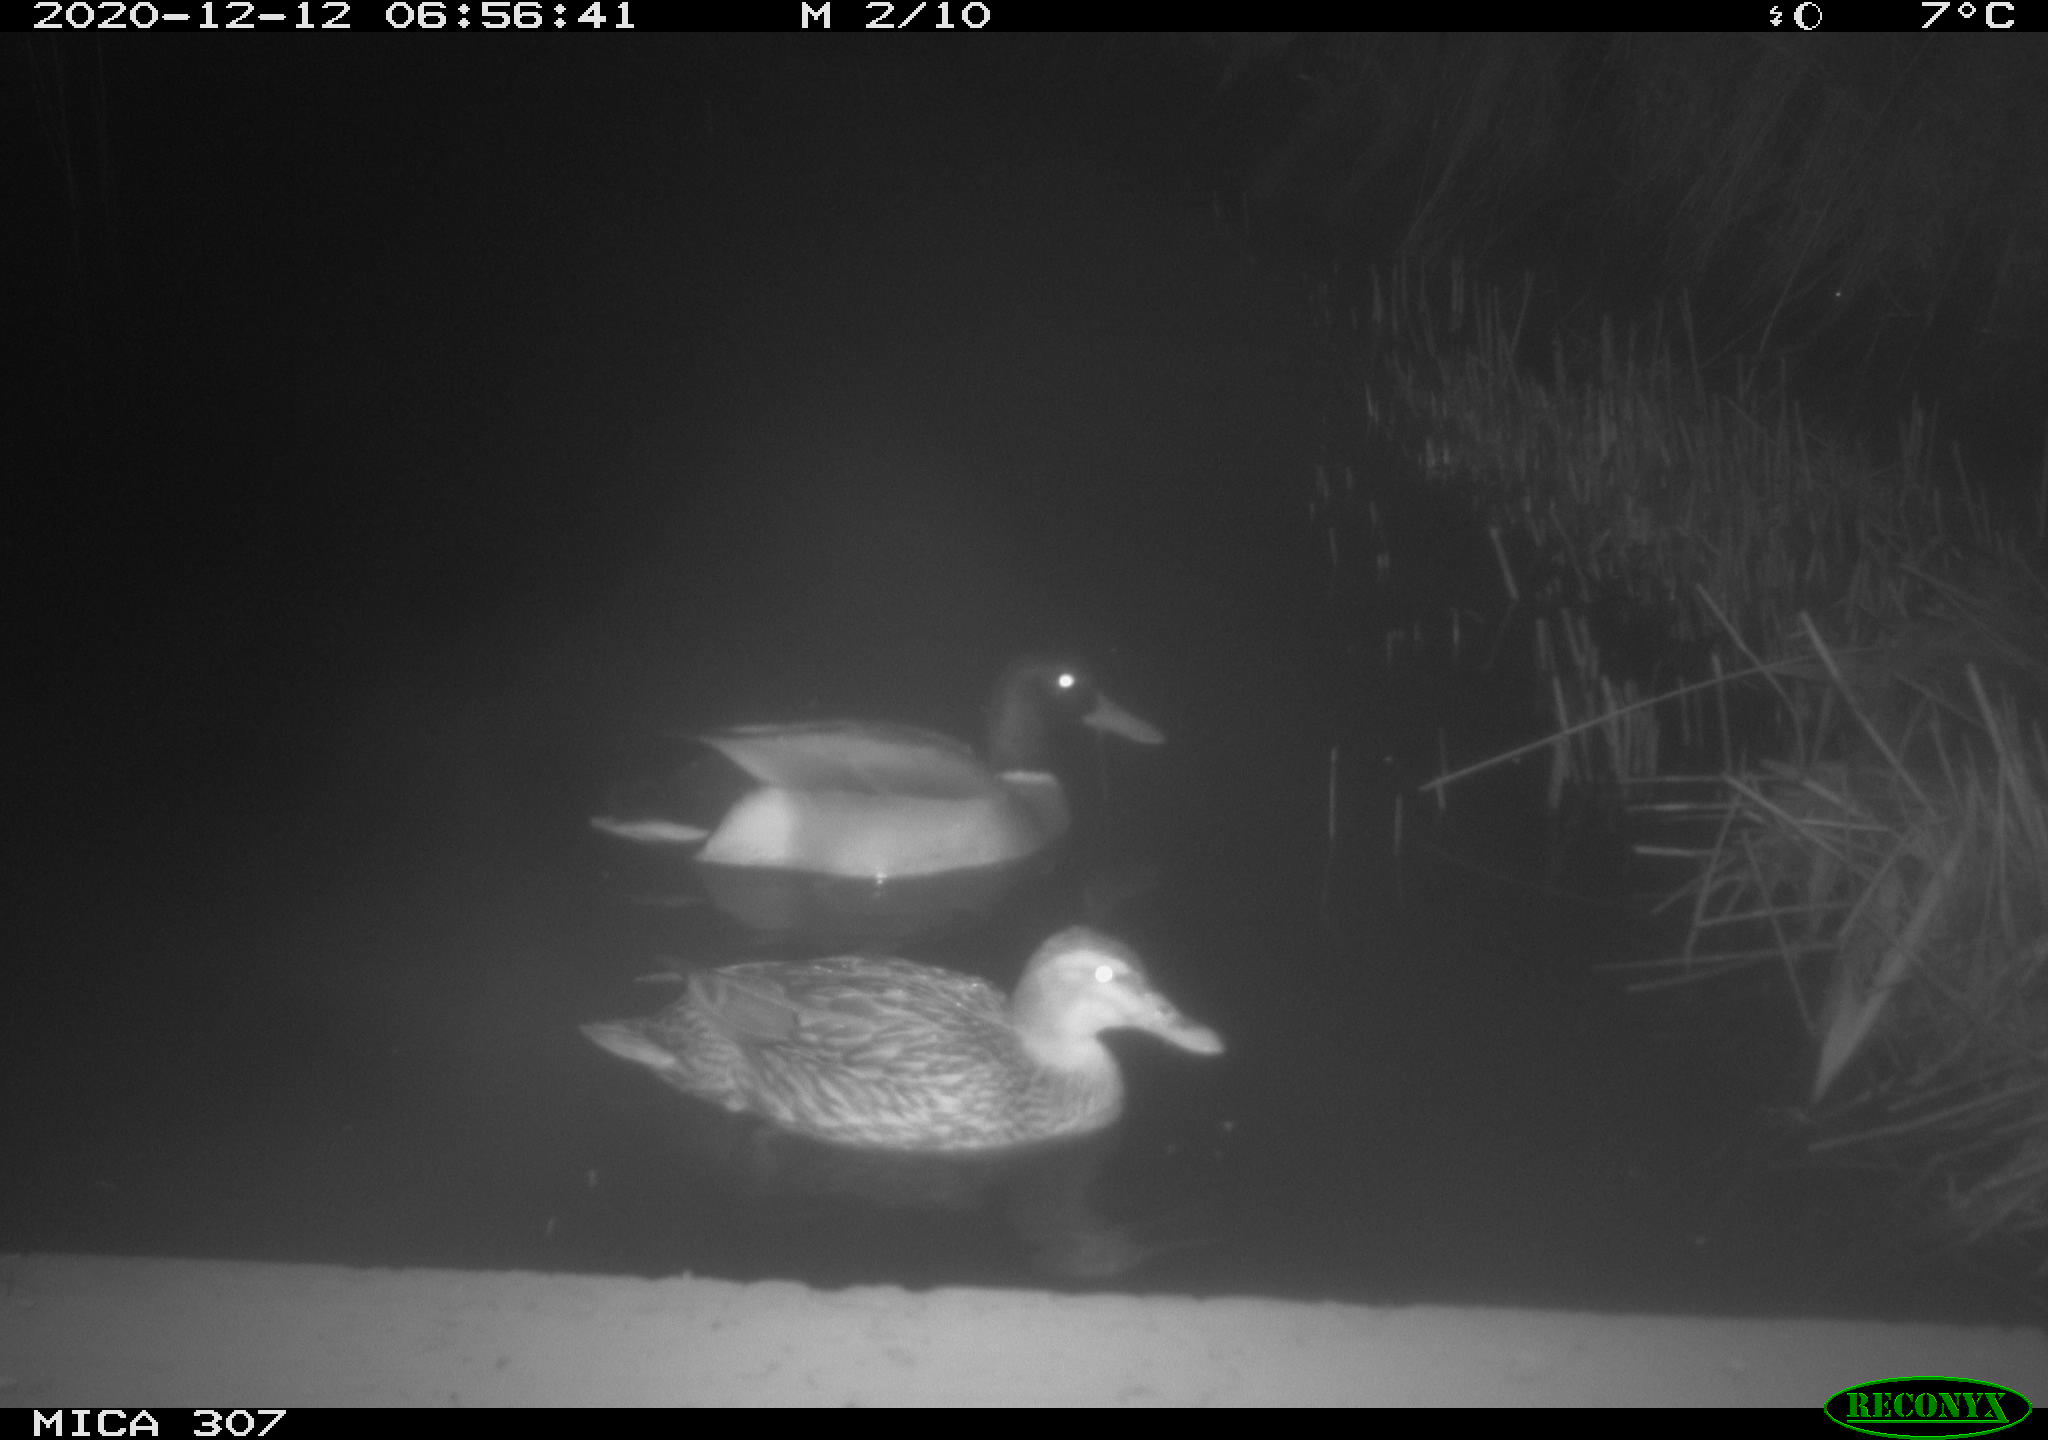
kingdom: Animalia
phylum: Chordata
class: Aves
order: Anseriformes
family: Anatidae
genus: Anas
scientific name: Anas platyrhynchos
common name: Mallard
